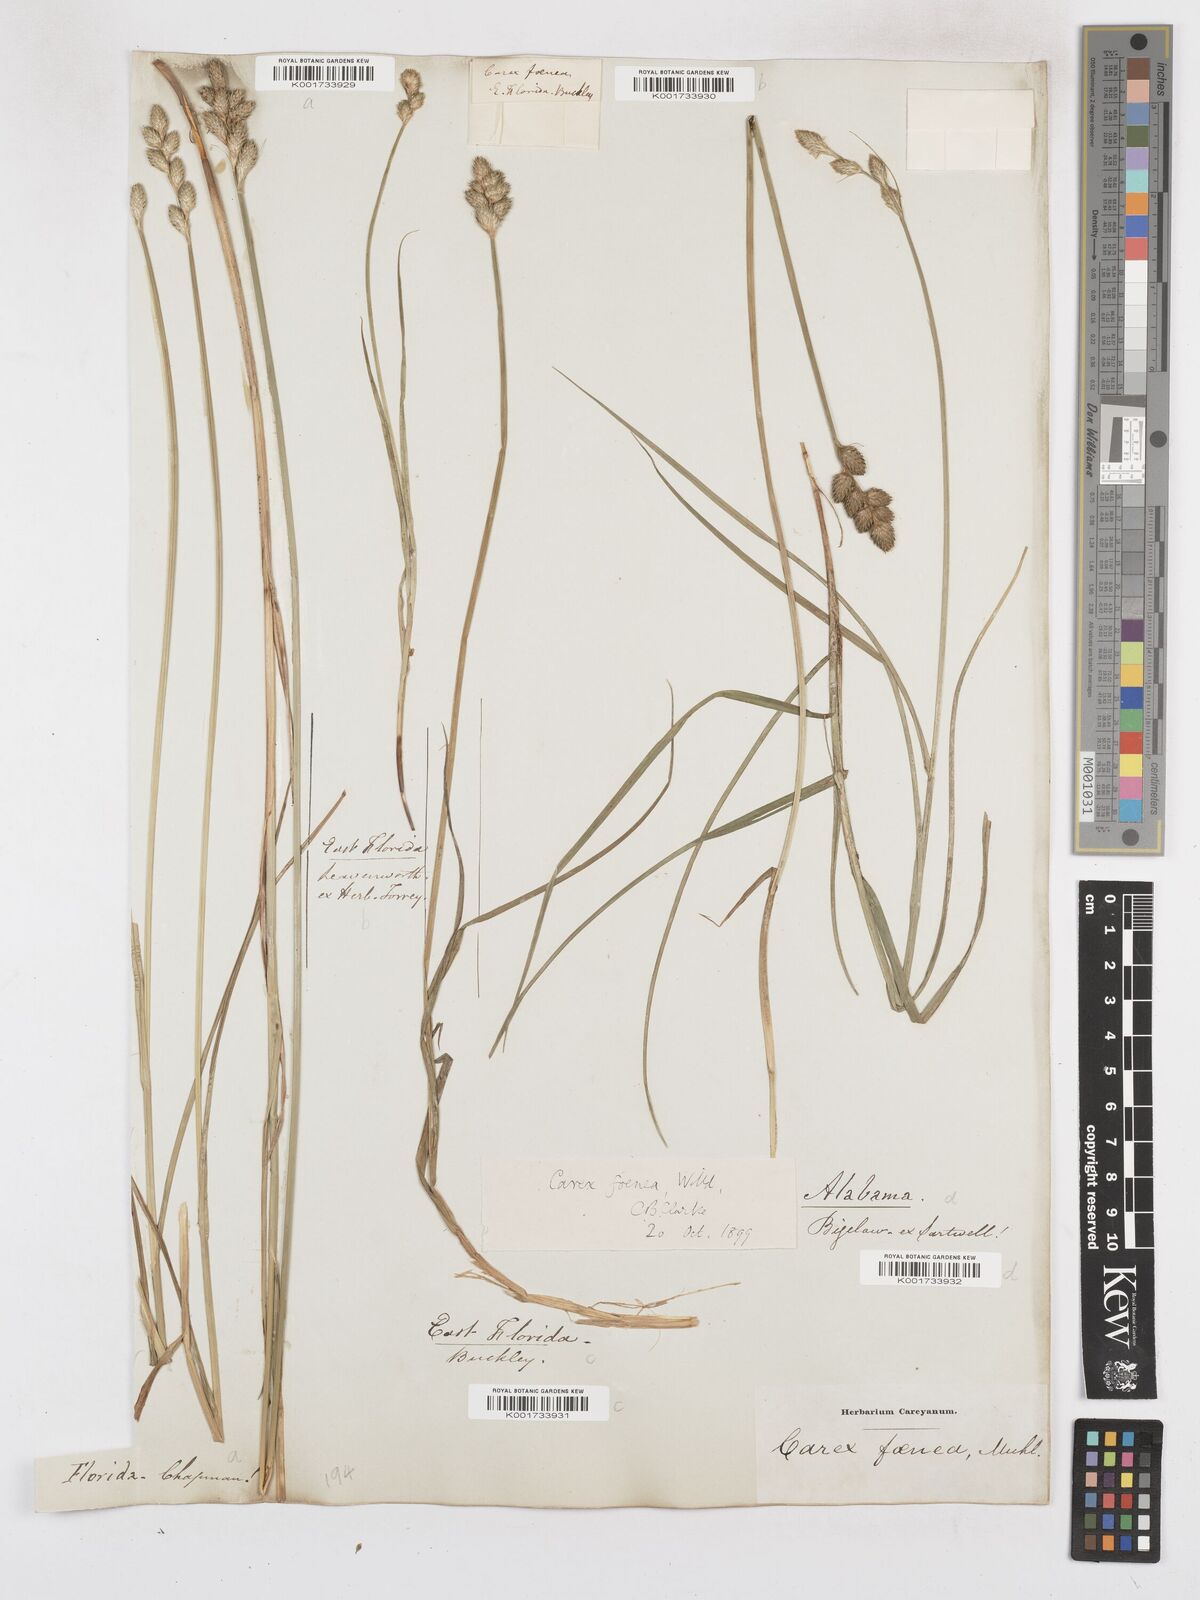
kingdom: Plantae
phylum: Tracheophyta
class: Liliopsida
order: Poales
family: Cyperaceae
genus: Carex
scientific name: Carex argyrantha
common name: Silvery-flowered sedge
